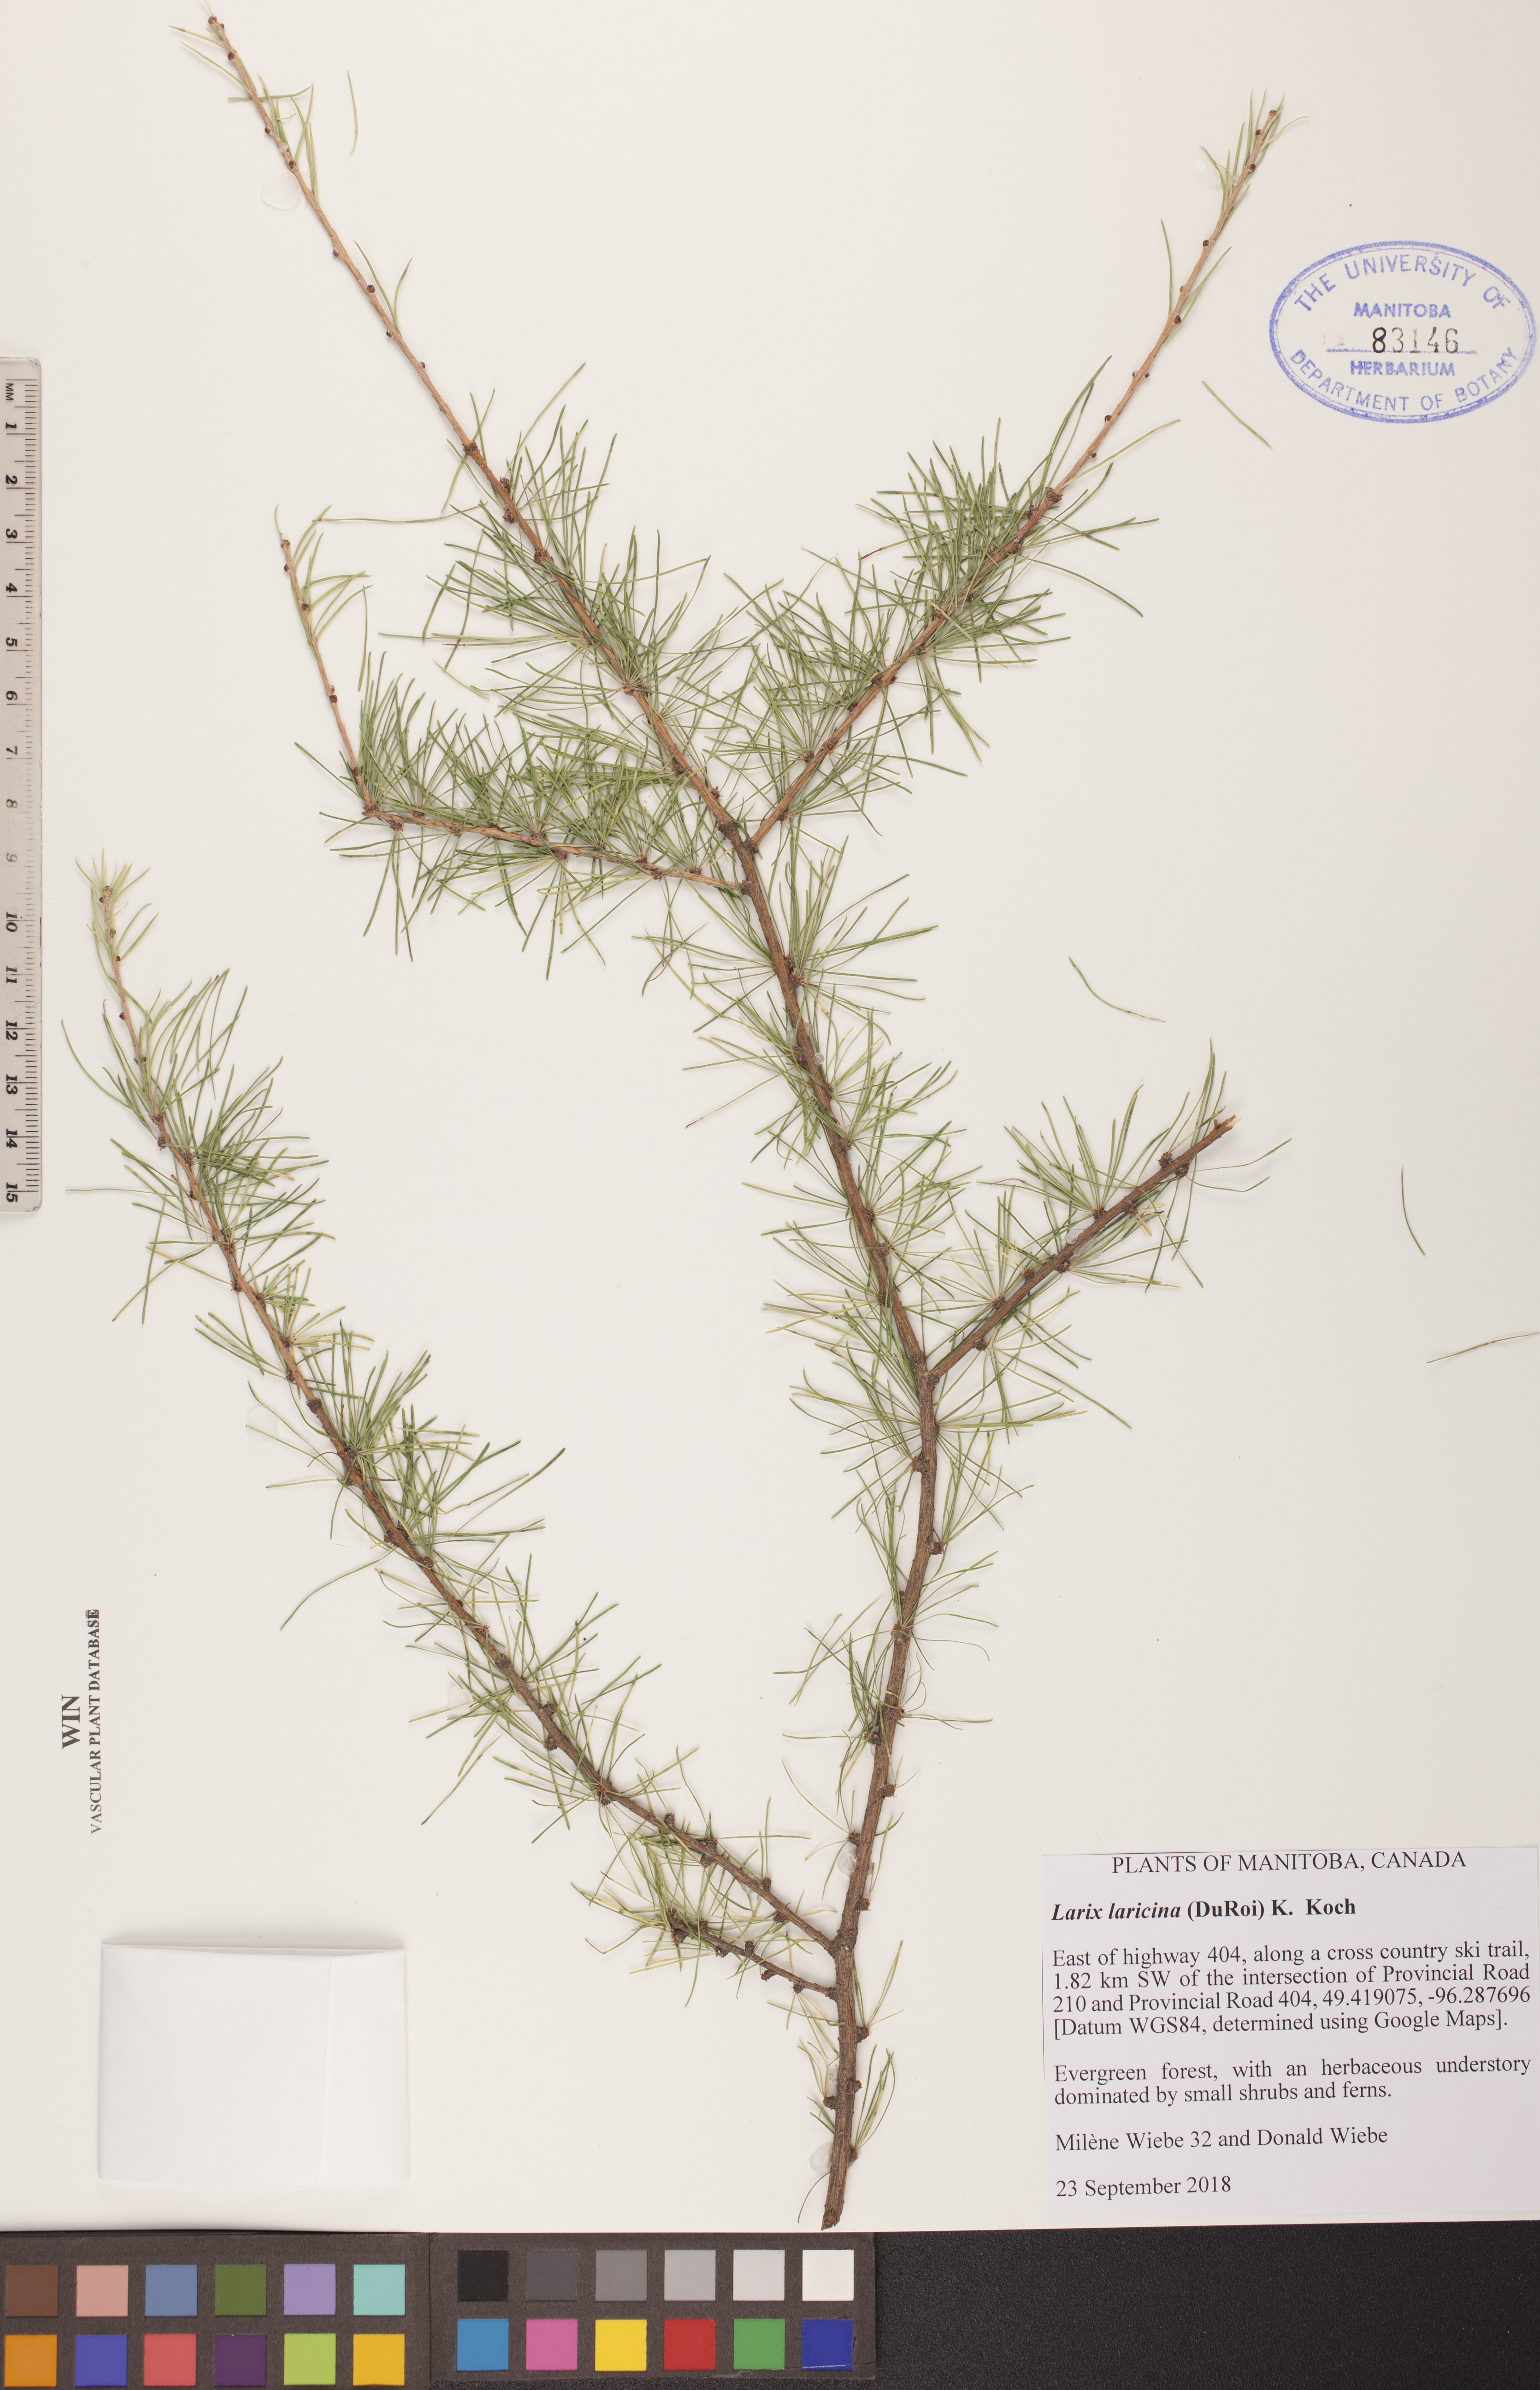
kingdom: Plantae
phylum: Tracheophyta
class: Pinopsida
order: Pinales
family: Pinaceae
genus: Larix
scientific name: Larix laricina
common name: American larch
